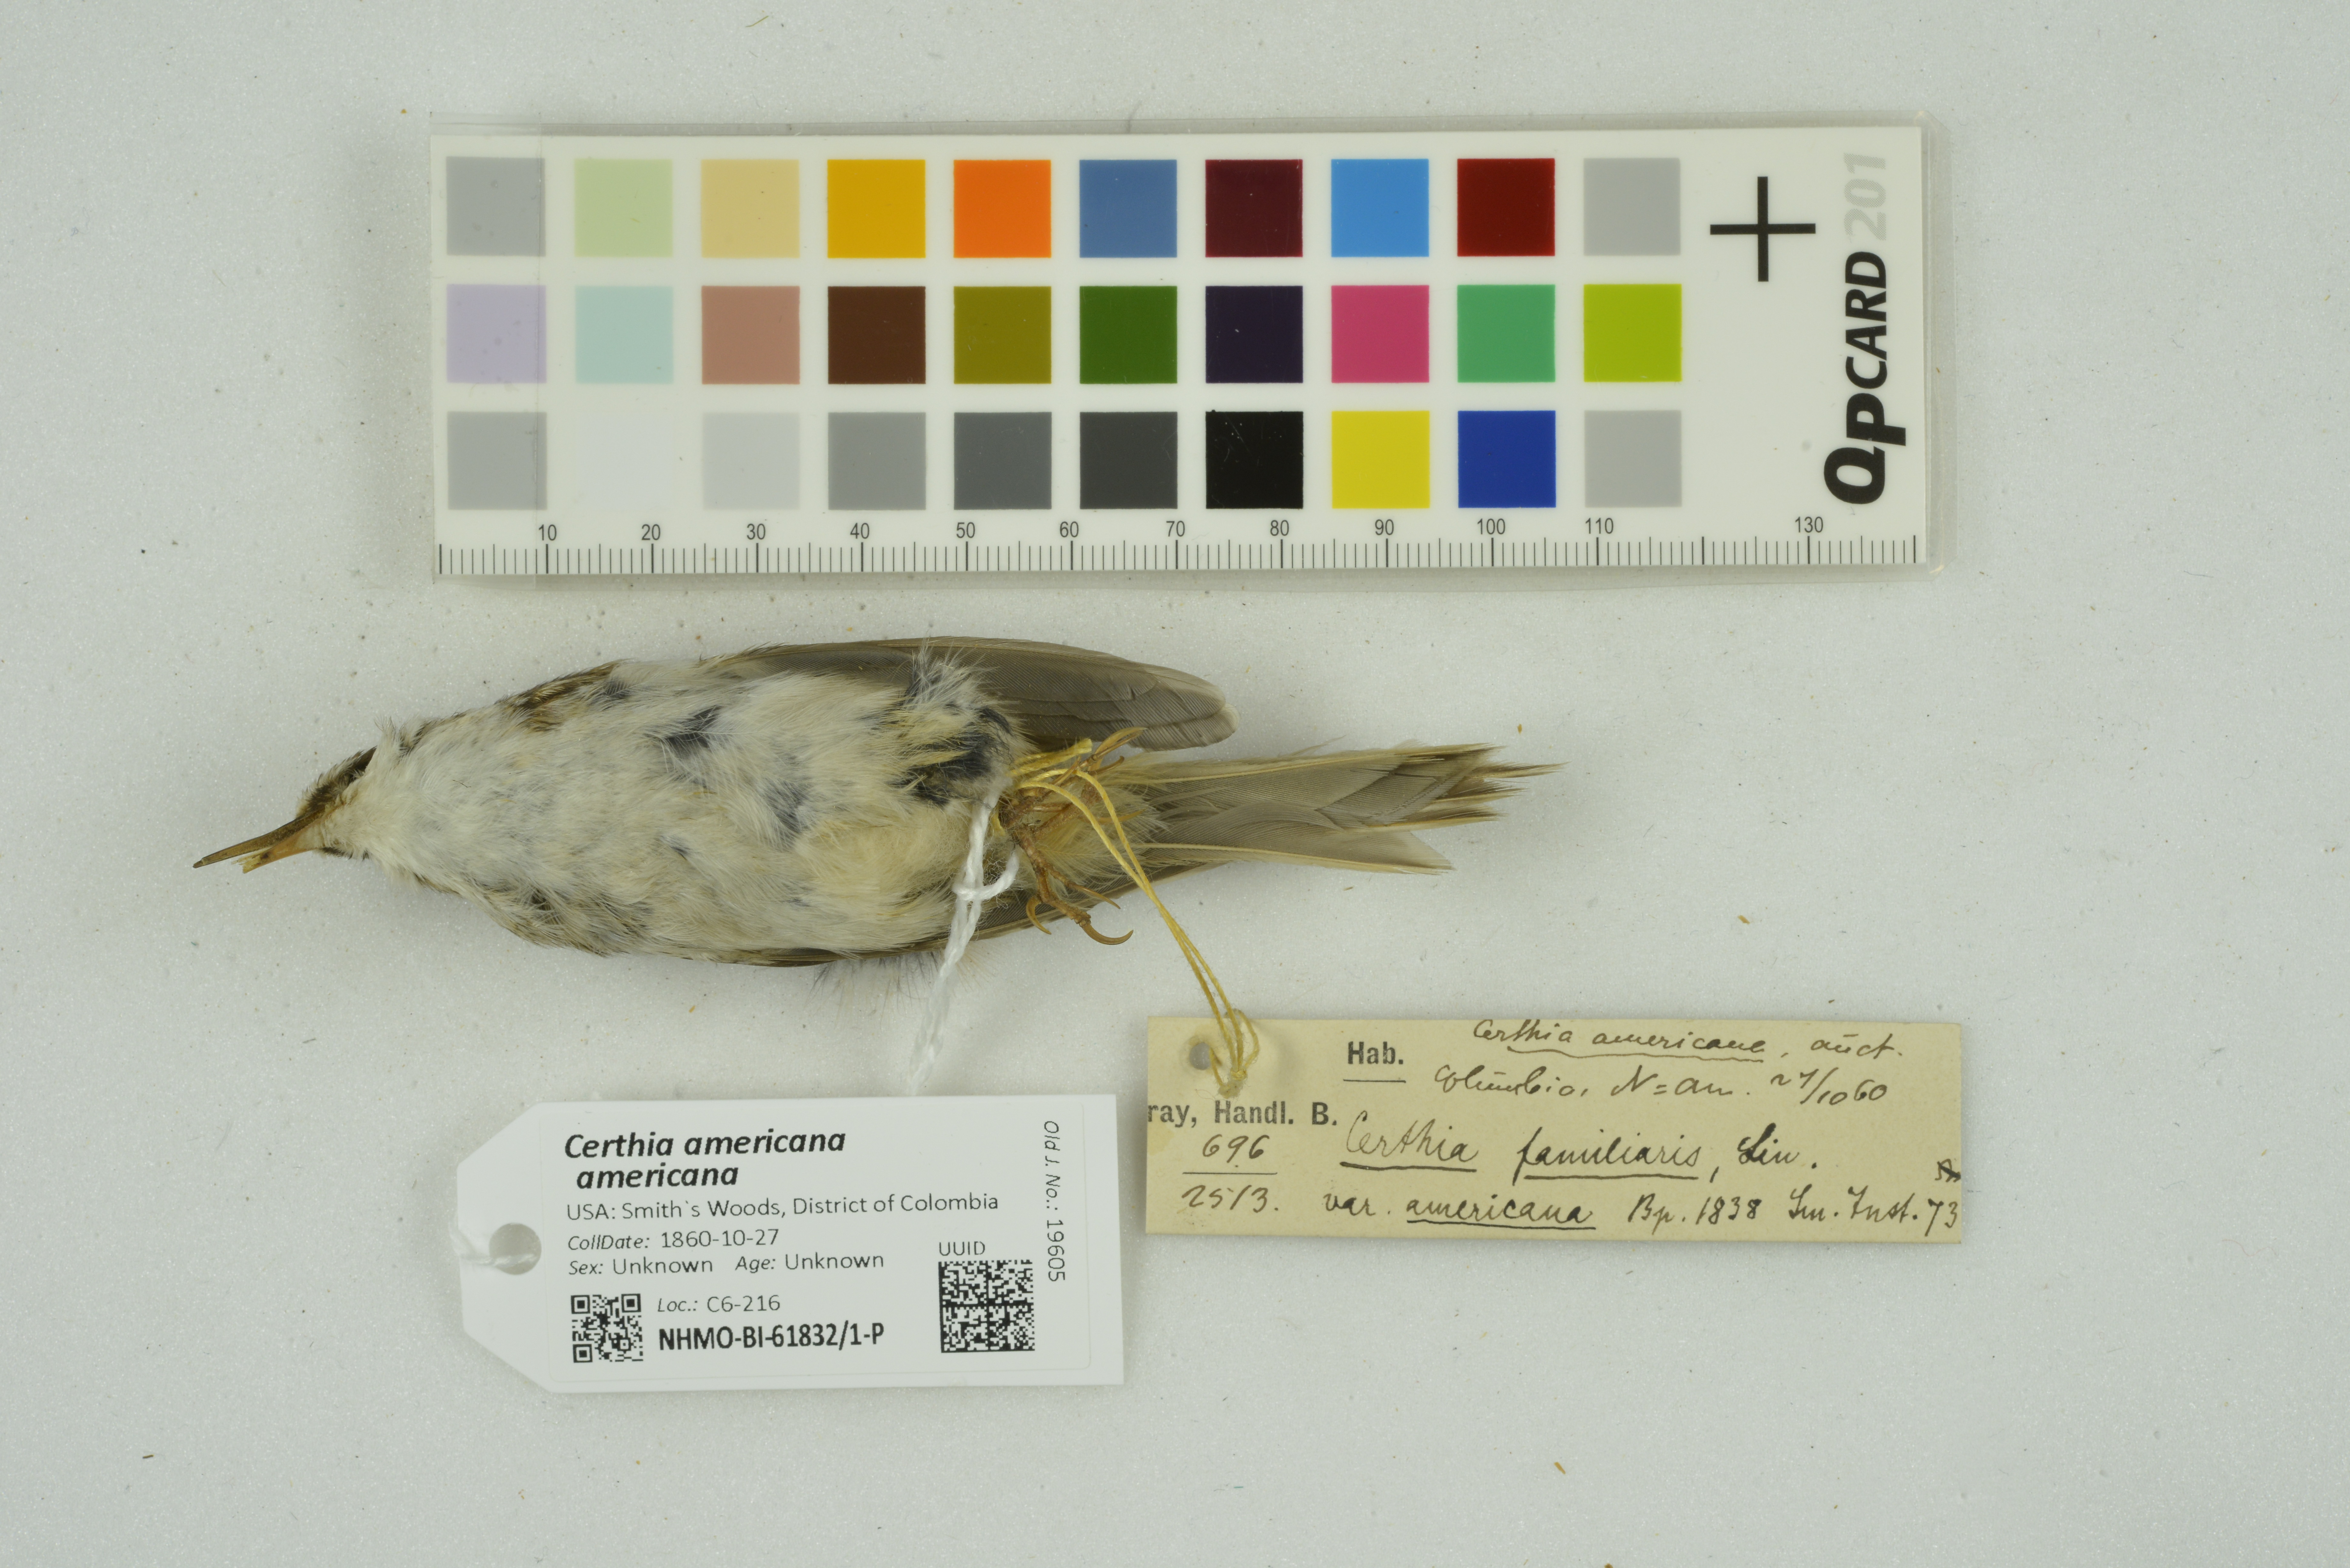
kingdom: Animalia
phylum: Chordata
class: Aves
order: Passeriformes
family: Certhiidae
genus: Certhia
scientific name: Certhia americana
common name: Brown creeper
